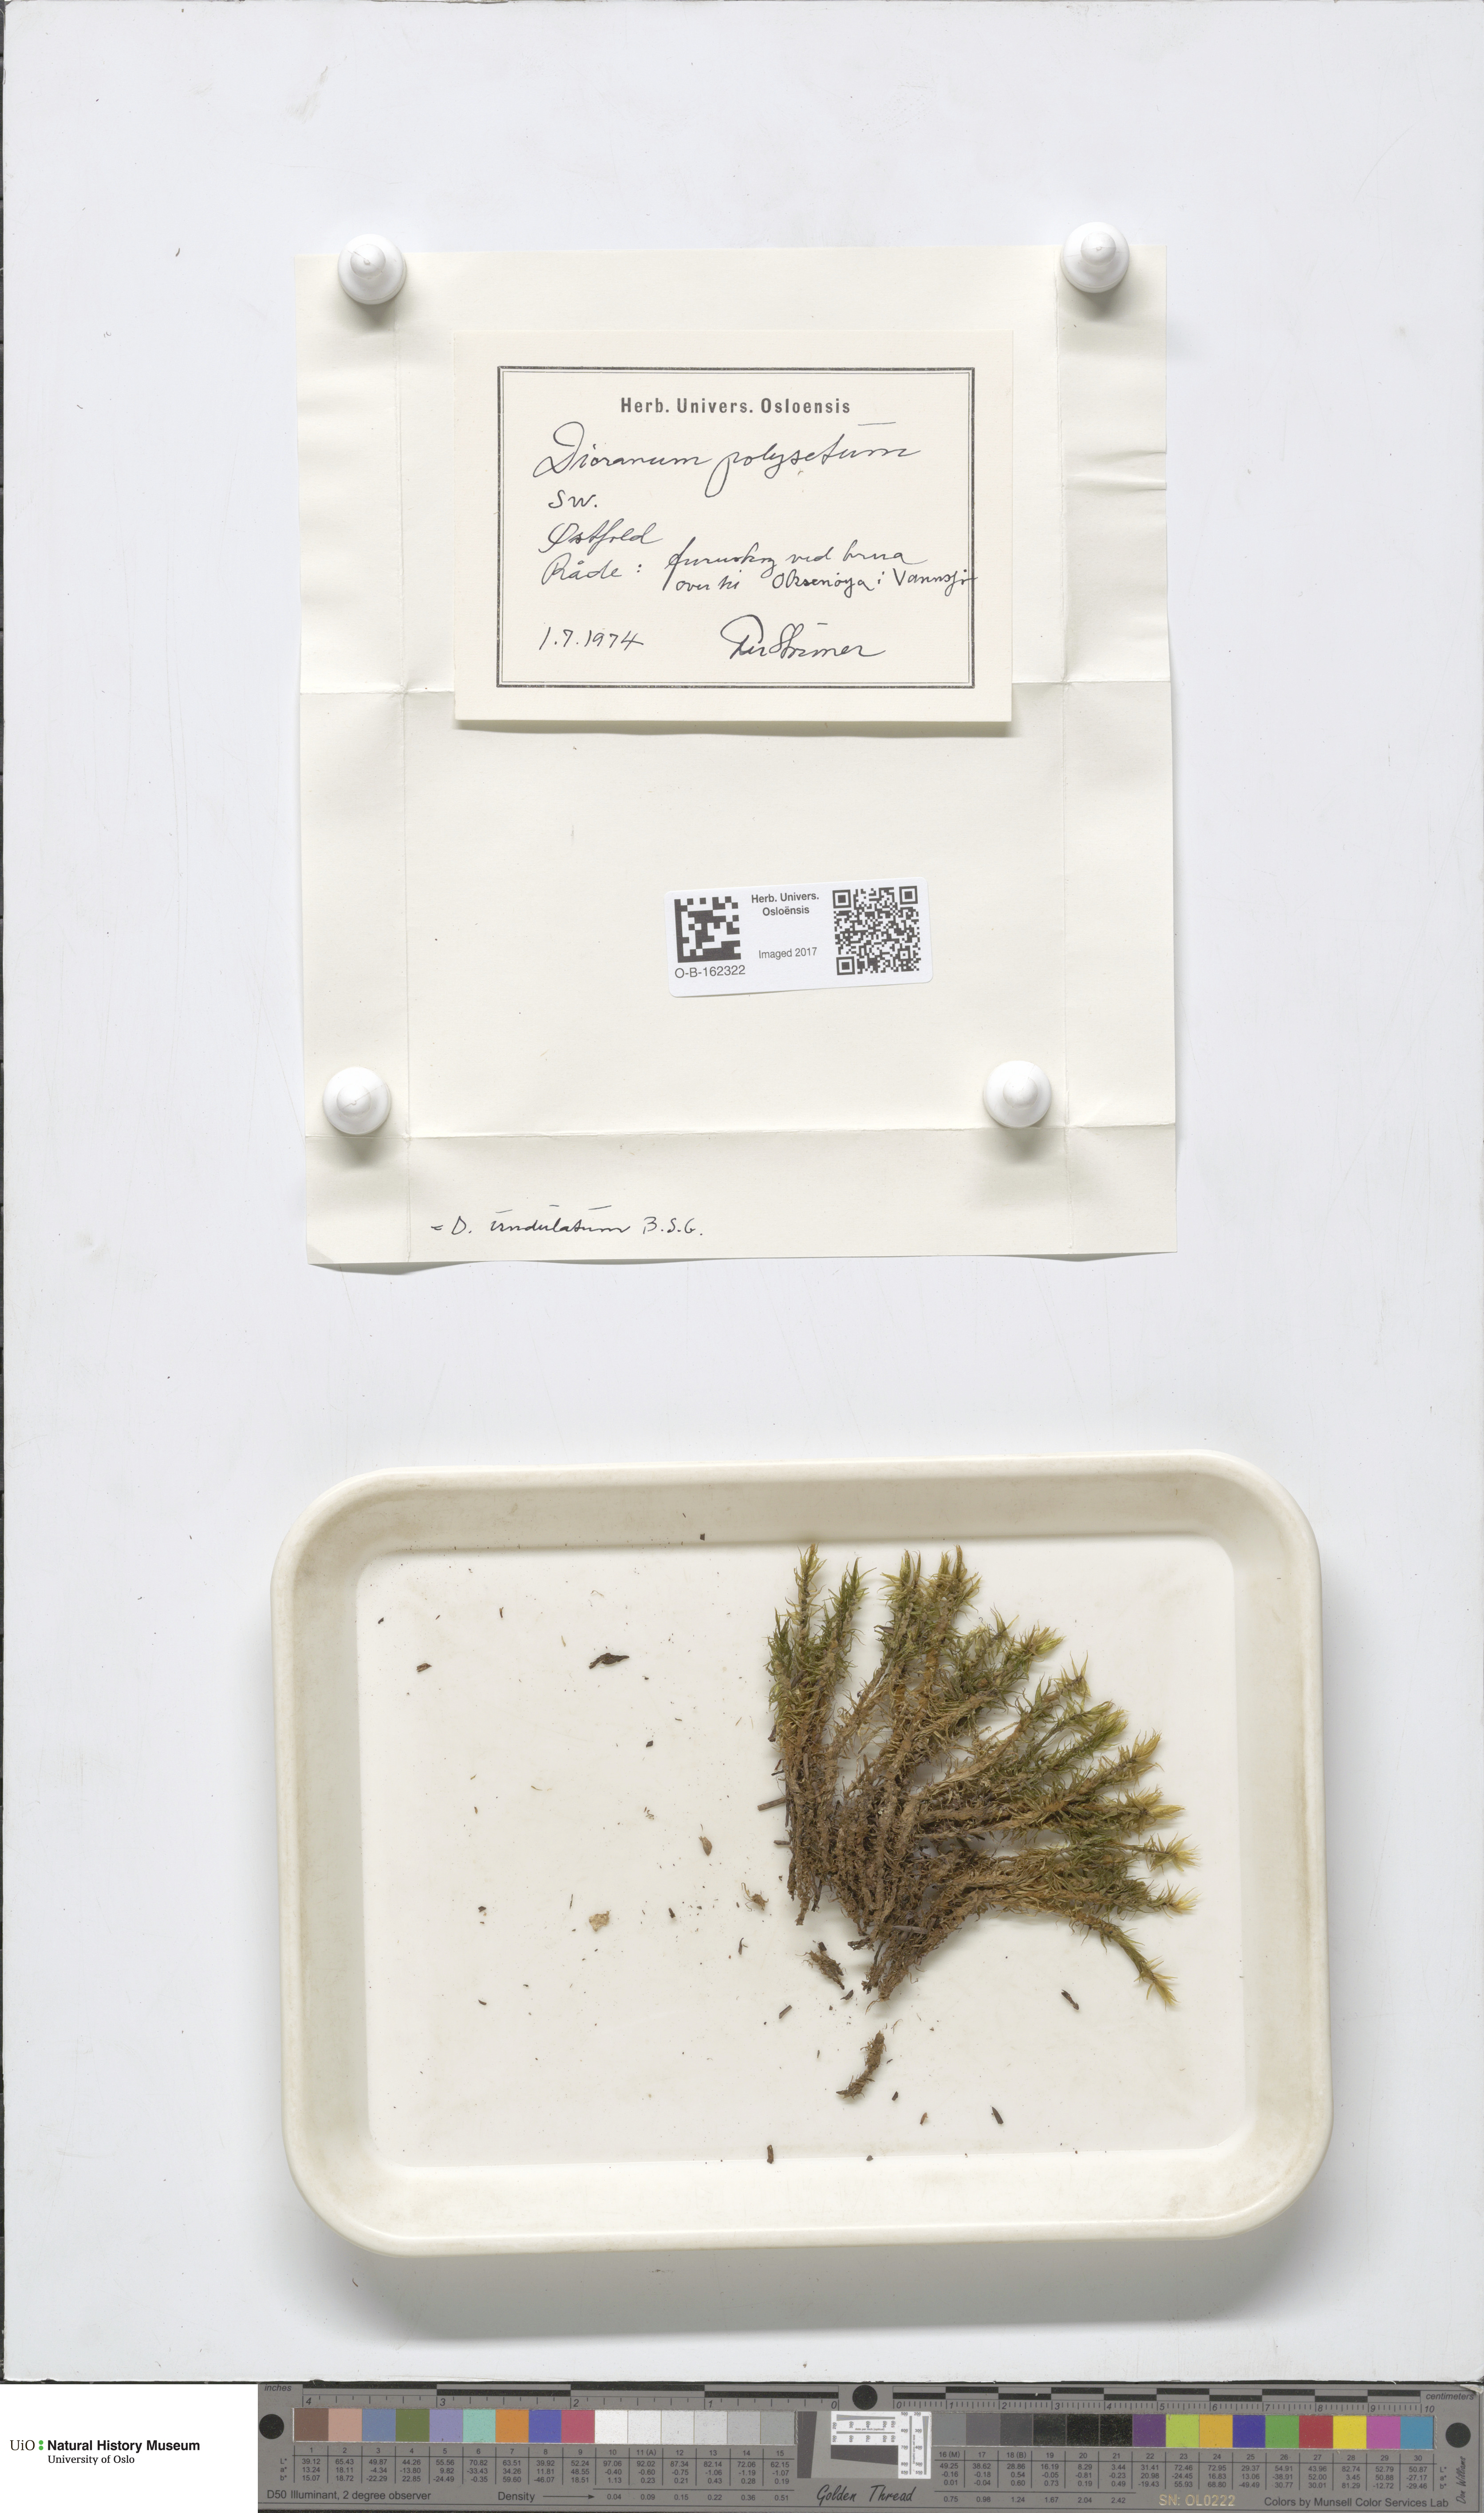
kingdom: Plantae
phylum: Bryophyta
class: Bryopsida
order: Dicranales
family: Dicranaceae
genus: Dicranum
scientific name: Dicranum polysetum
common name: Rugose fork-moss
